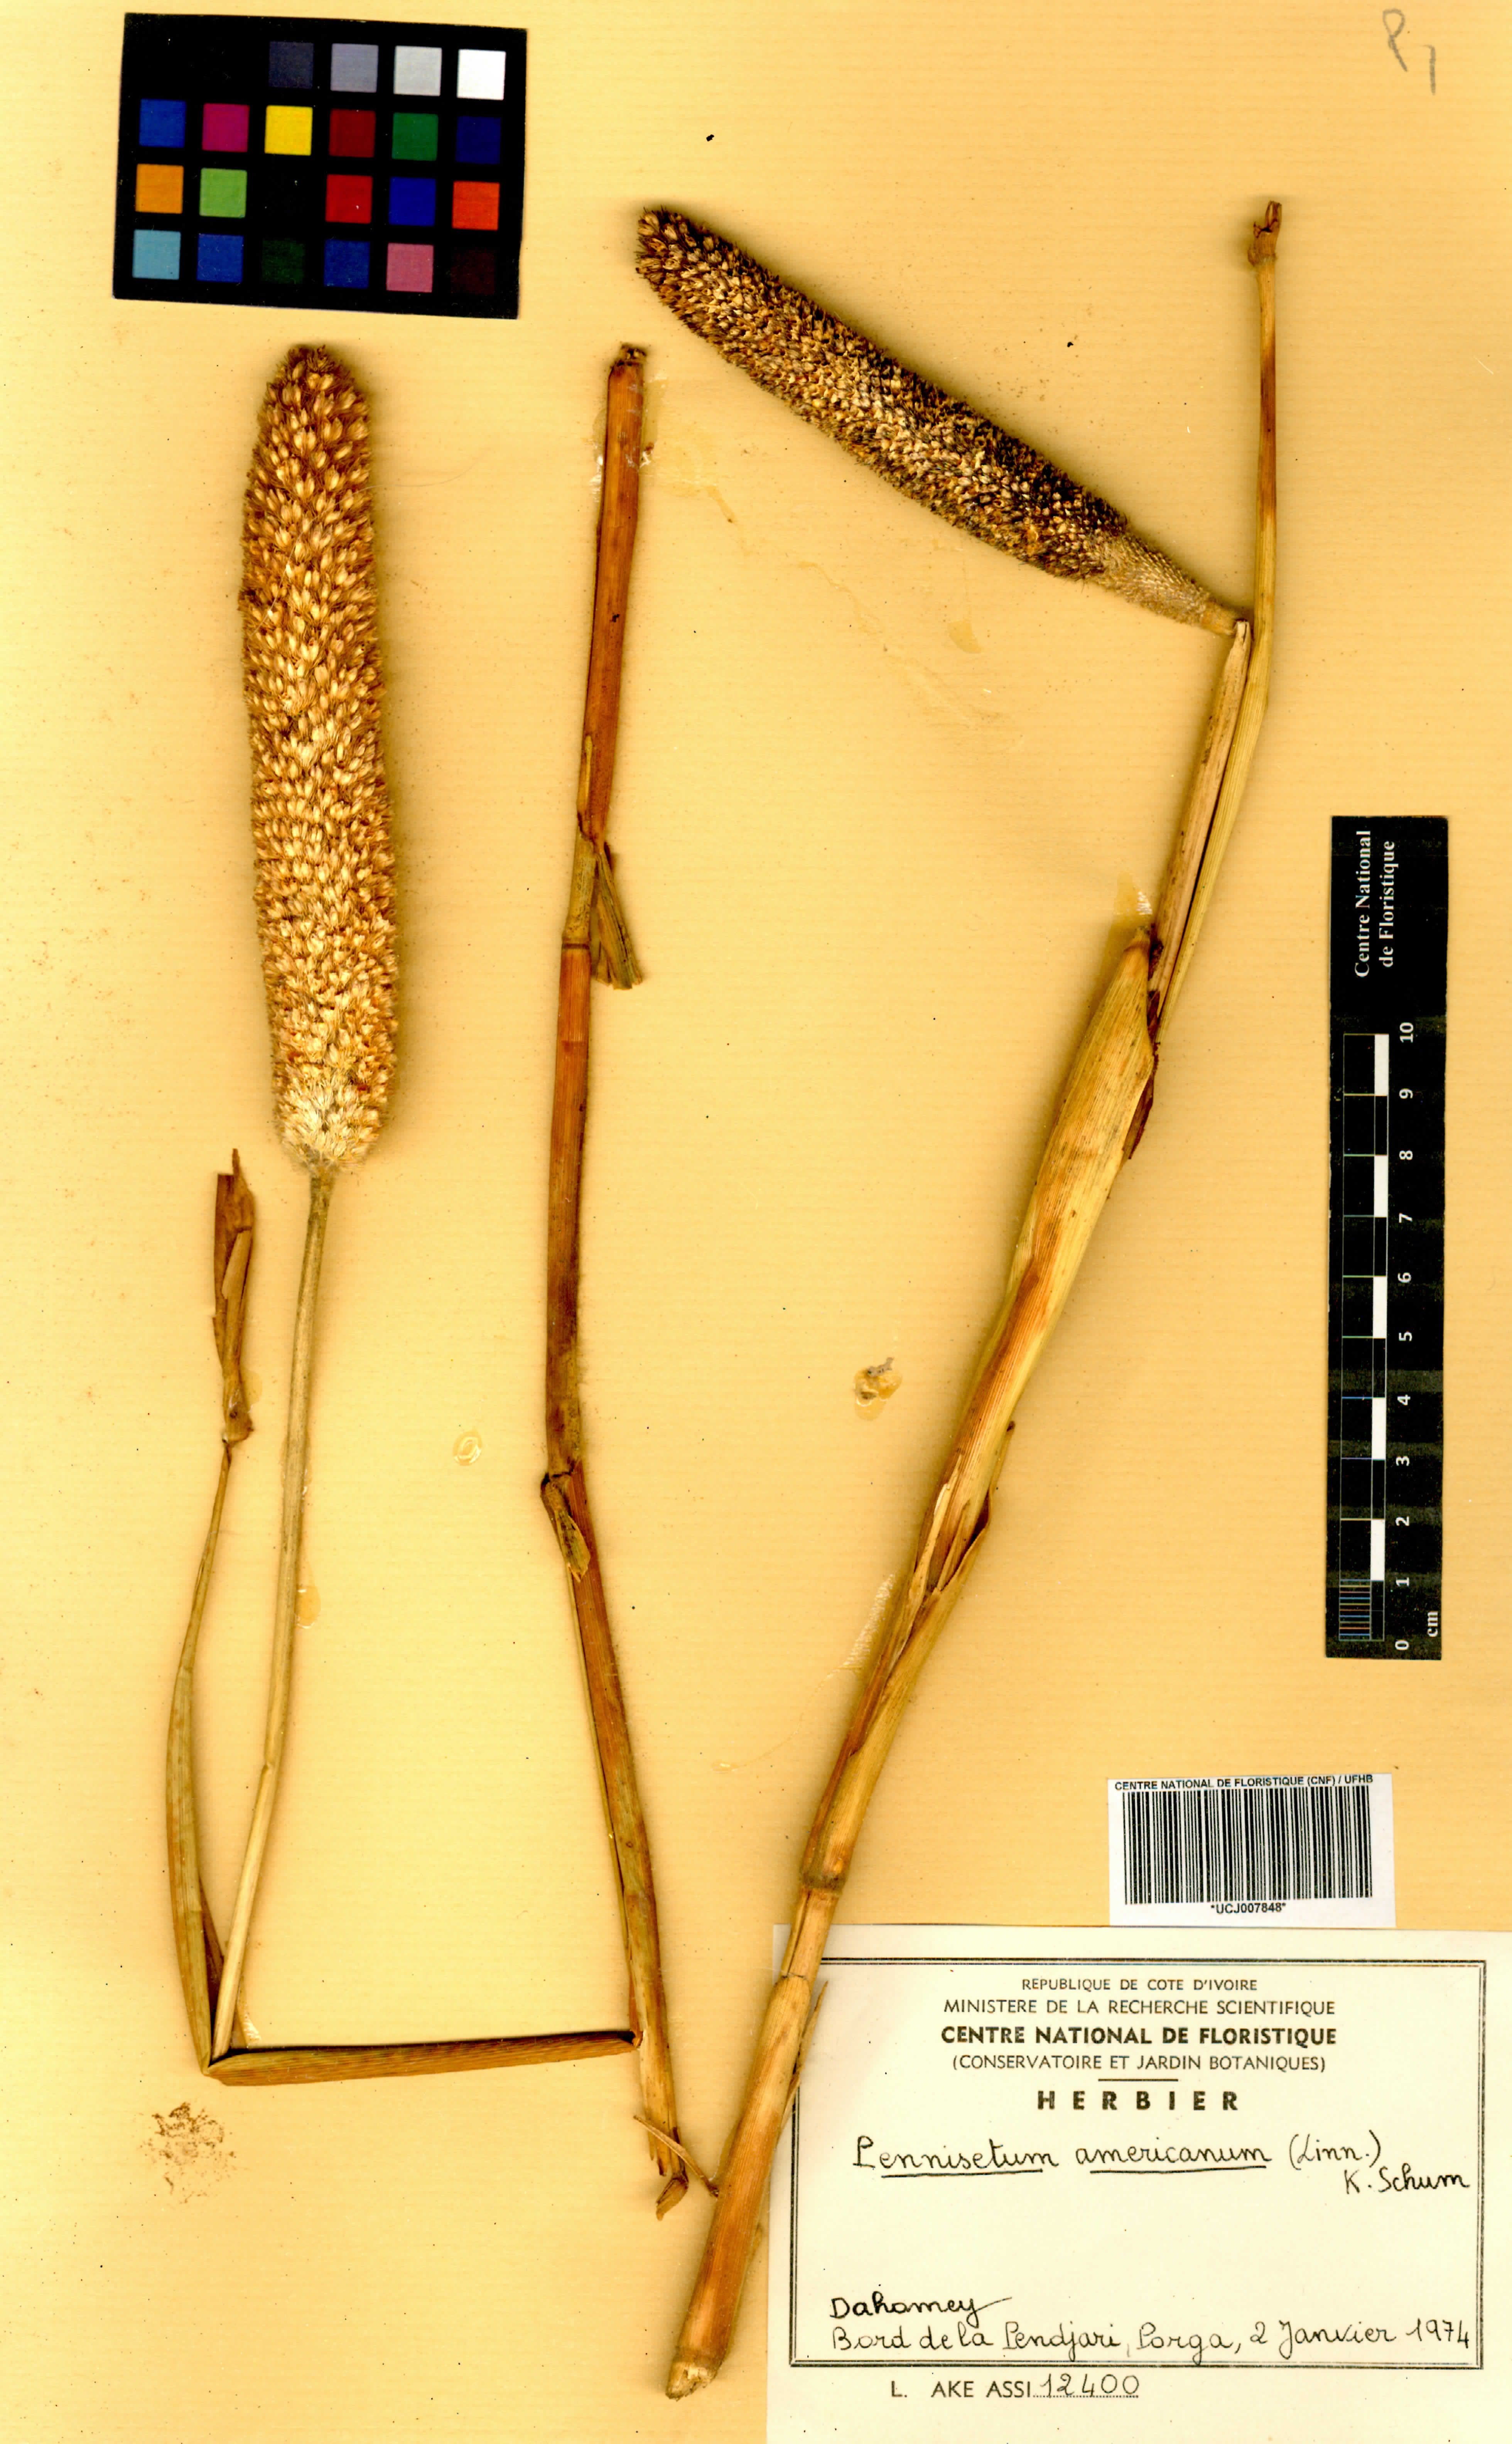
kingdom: Plantae
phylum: Tracheophyta
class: Liliopsida
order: Poales
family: Poaceae
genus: Cenchrus
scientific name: Cenchrus americanus
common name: Pearl millet
